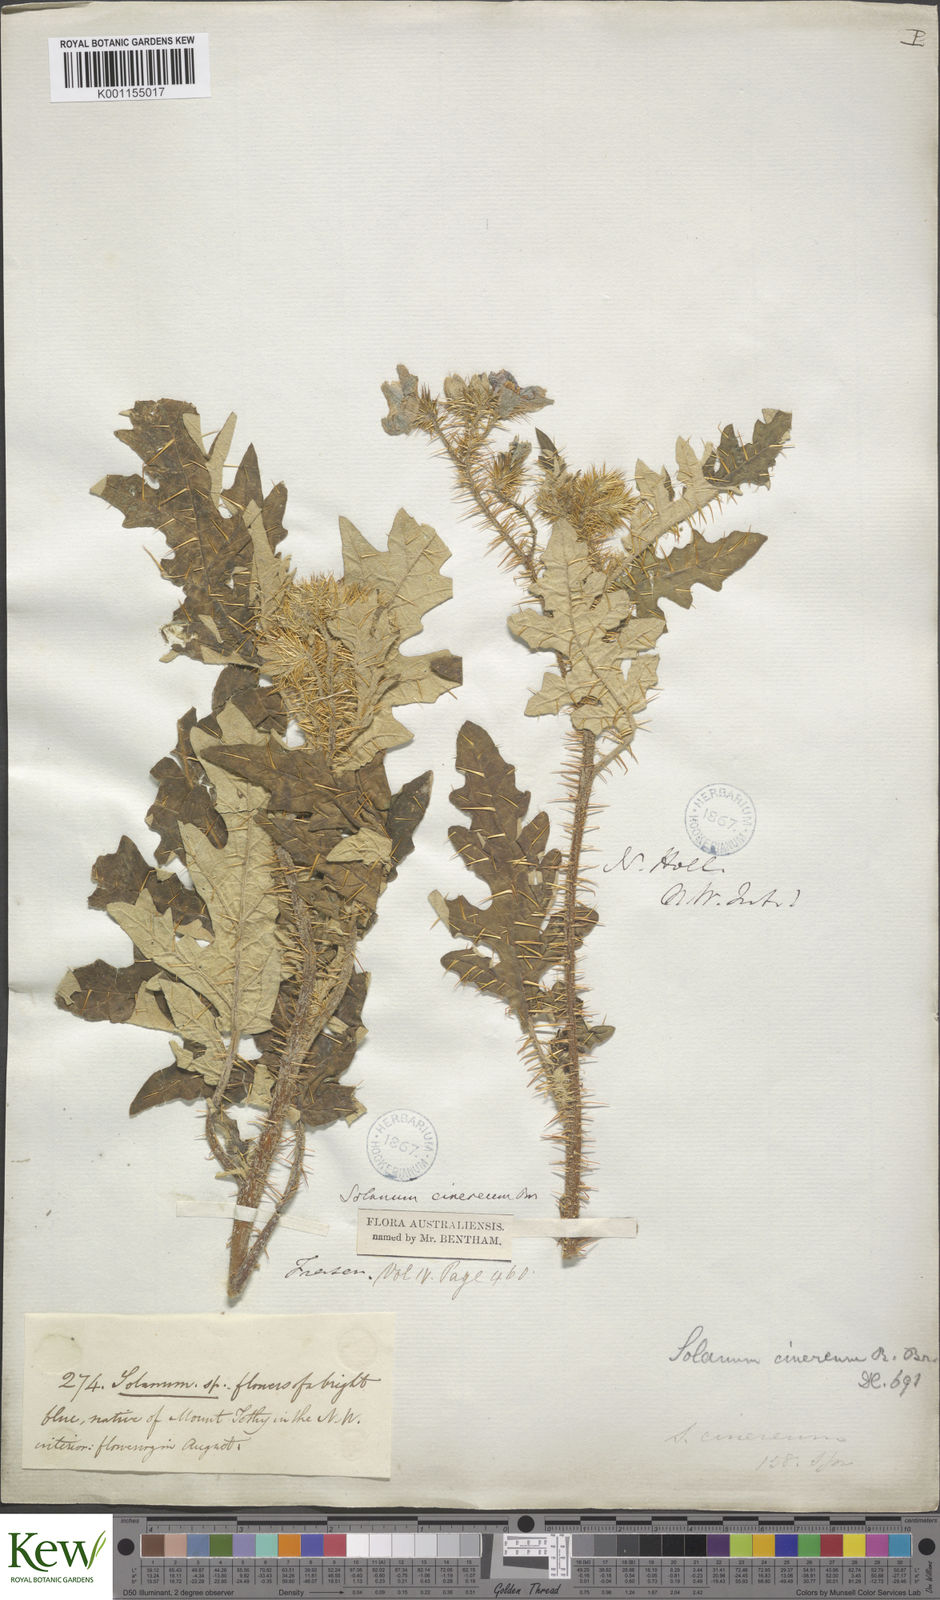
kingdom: Plantae
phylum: Tracheophyta
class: Magnoliopsida
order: Solanales
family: Solanaceae
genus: Solanum
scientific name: Solanum cinereum
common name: Narrawa-bur
